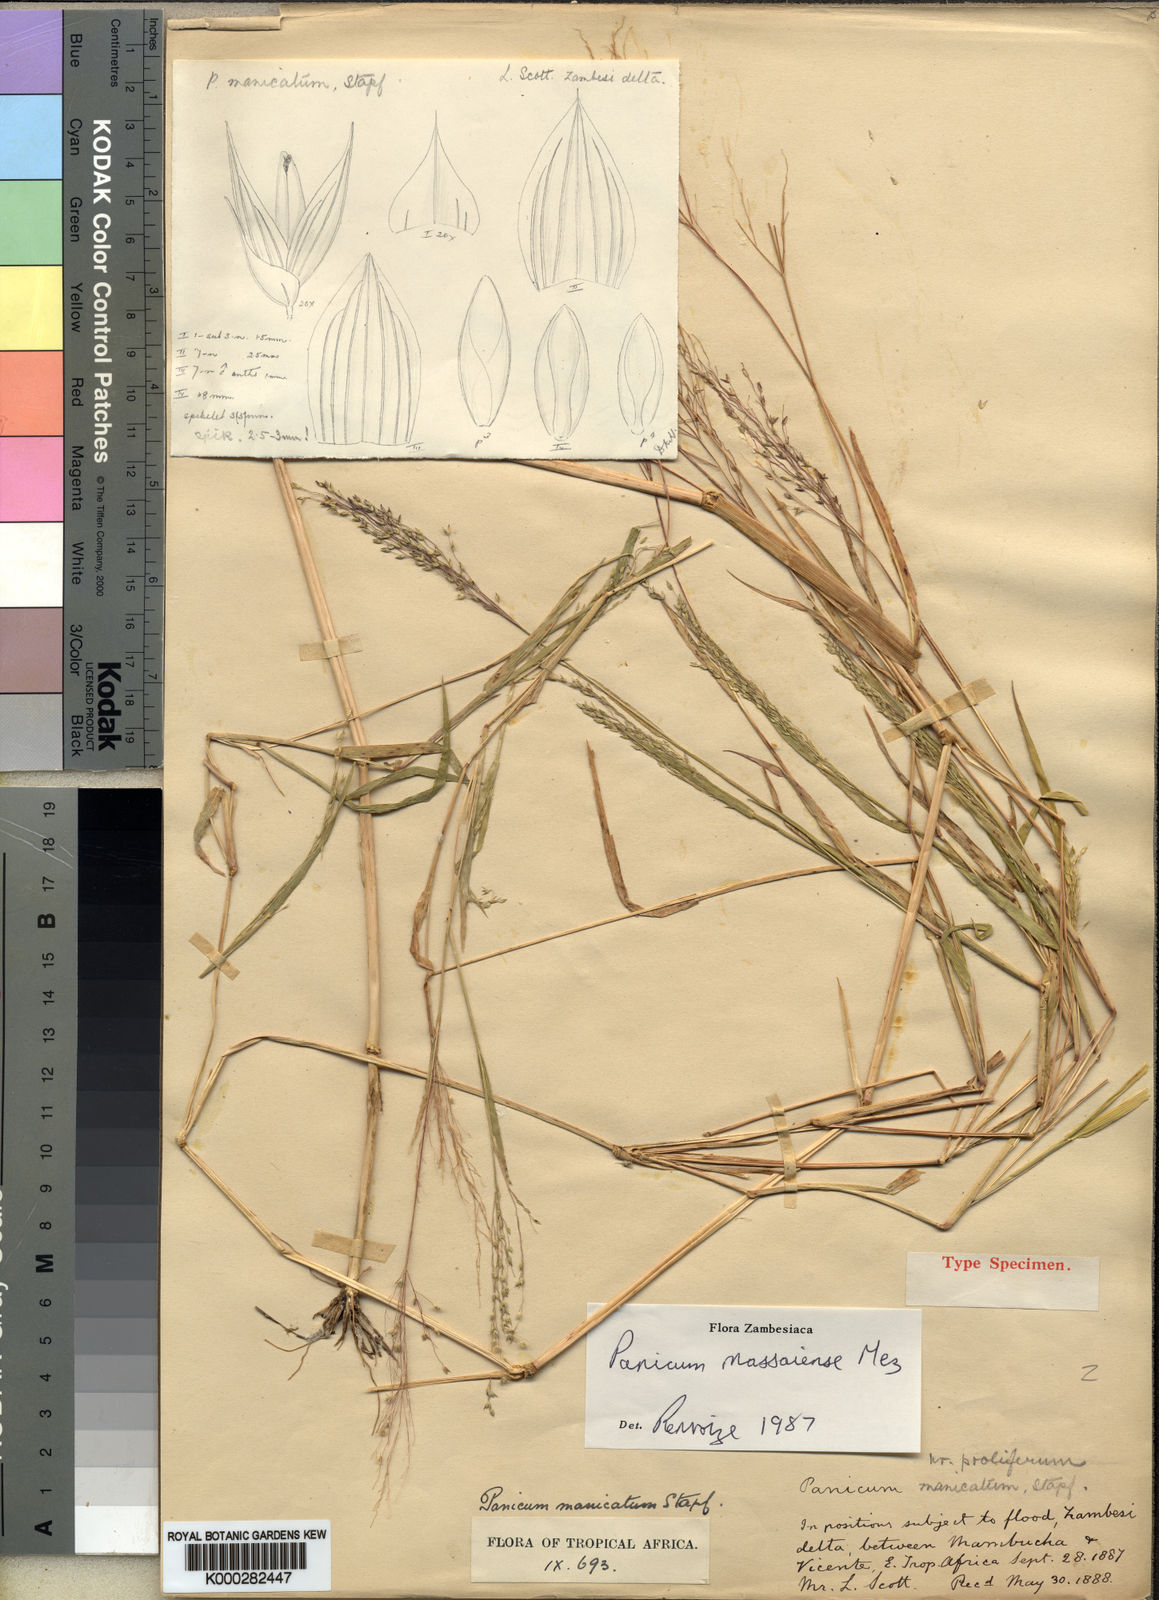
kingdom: Plantae
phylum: Tracheophyta
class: Liliopsida
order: Poales
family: Poaceae
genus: Panicum
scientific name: Panicum massaiense
